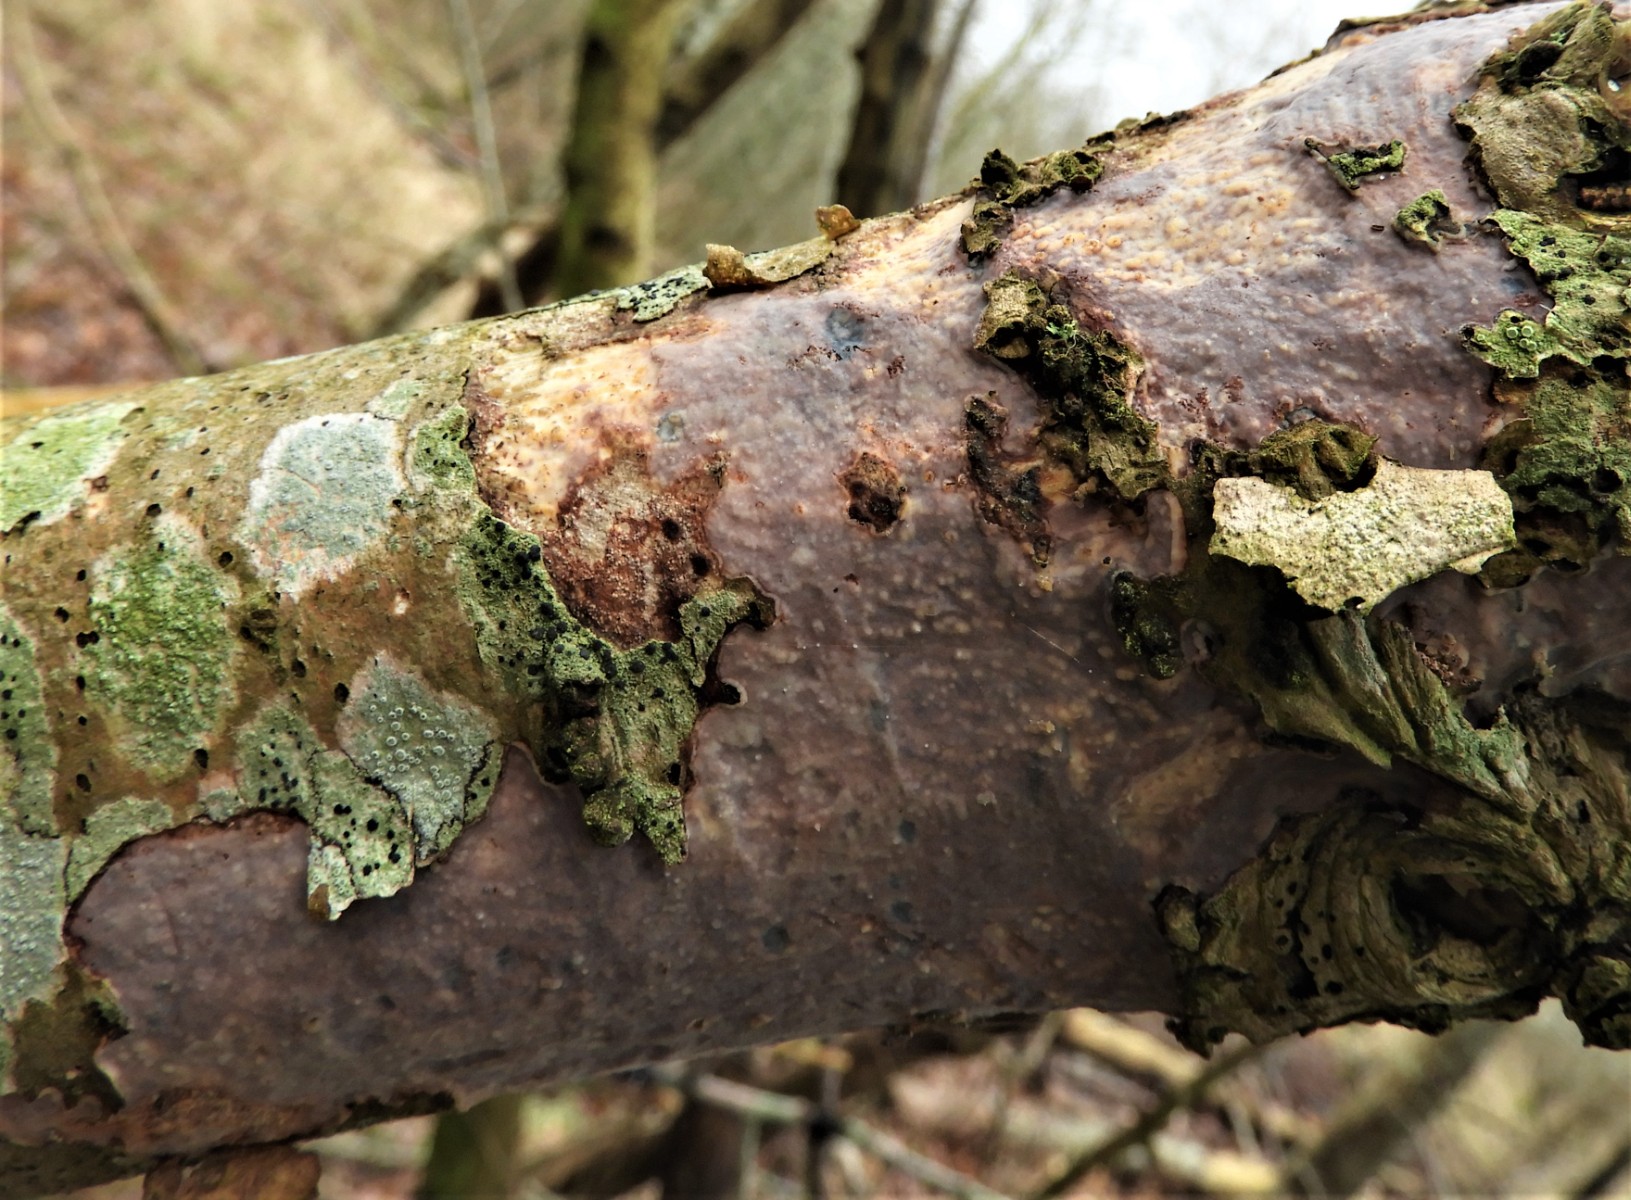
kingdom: Fungi
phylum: Basidiomycota
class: Agaricomycetes
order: Corticiales
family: Vuilleminiaceae
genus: Vuilleminia
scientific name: Vuilleminia comedens
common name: almindelig barksprænger
